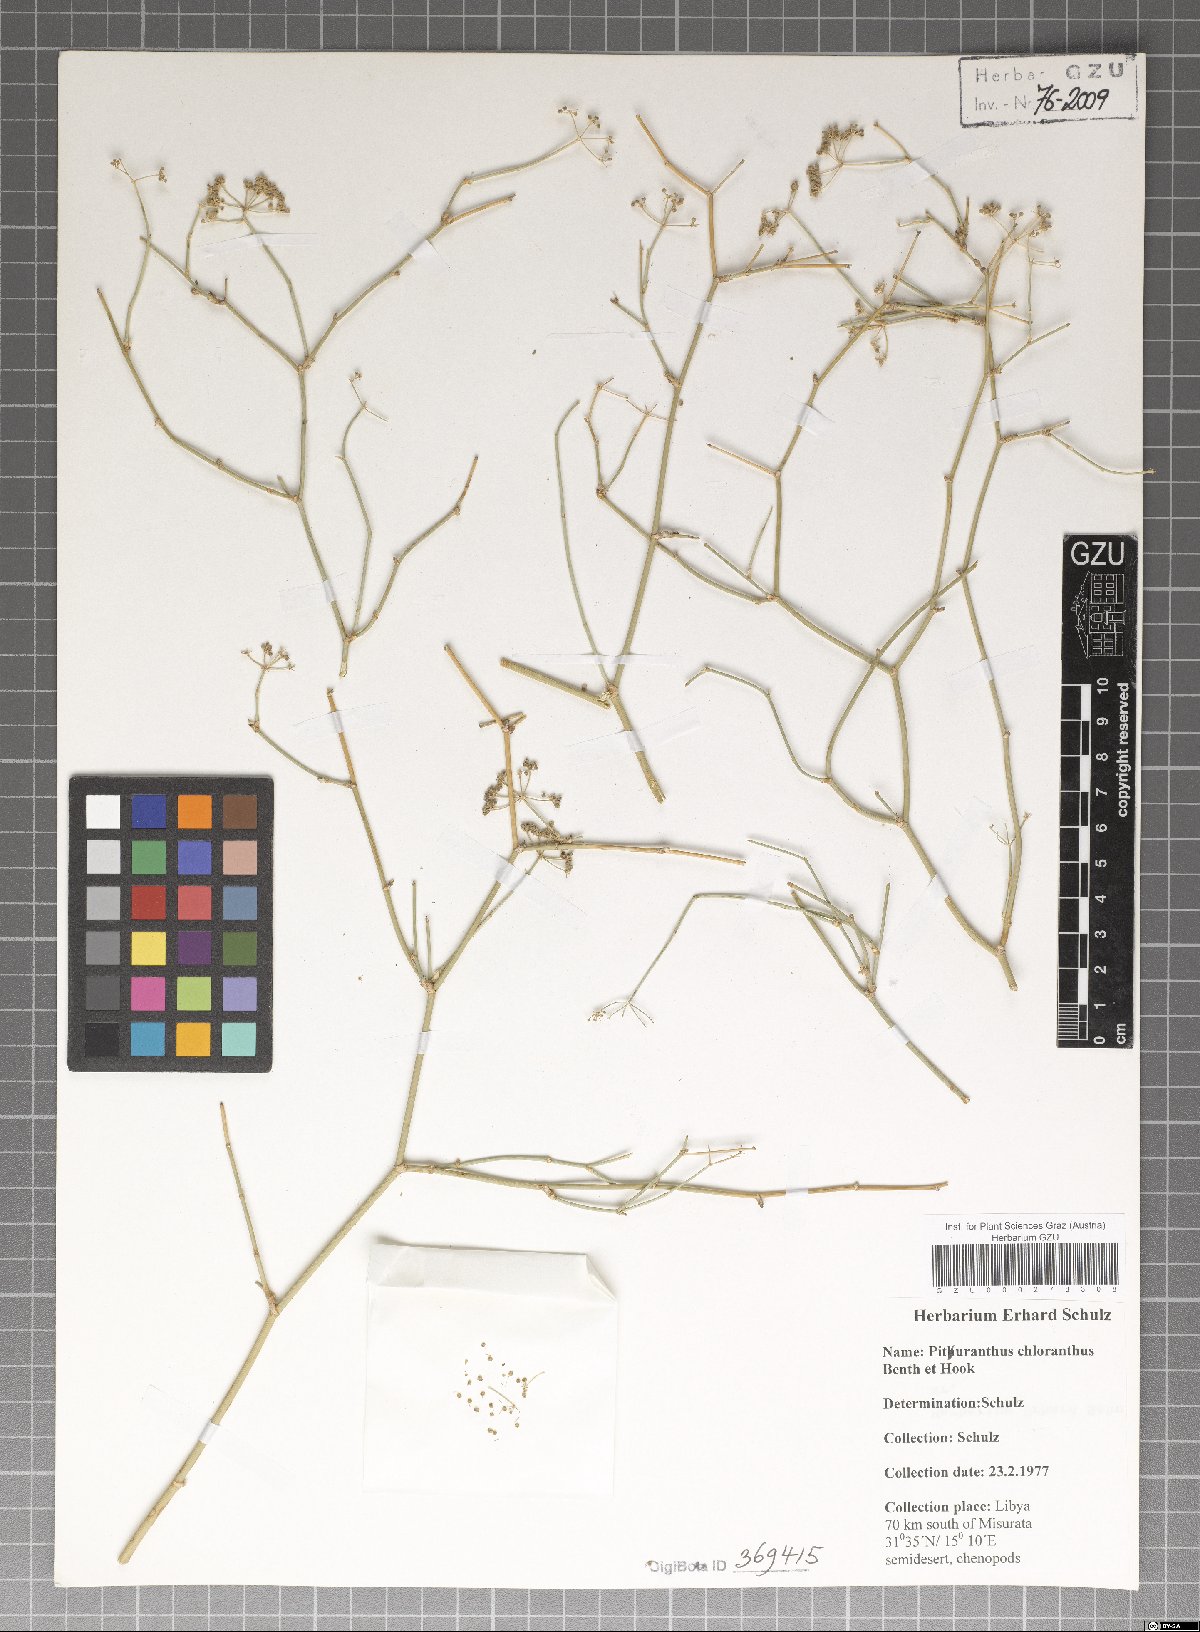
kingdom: Plantae
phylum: Tracheophyta
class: Magnoliopsida
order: Apiales
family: Apiaceae
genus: Deverra
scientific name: Deverra denudata
